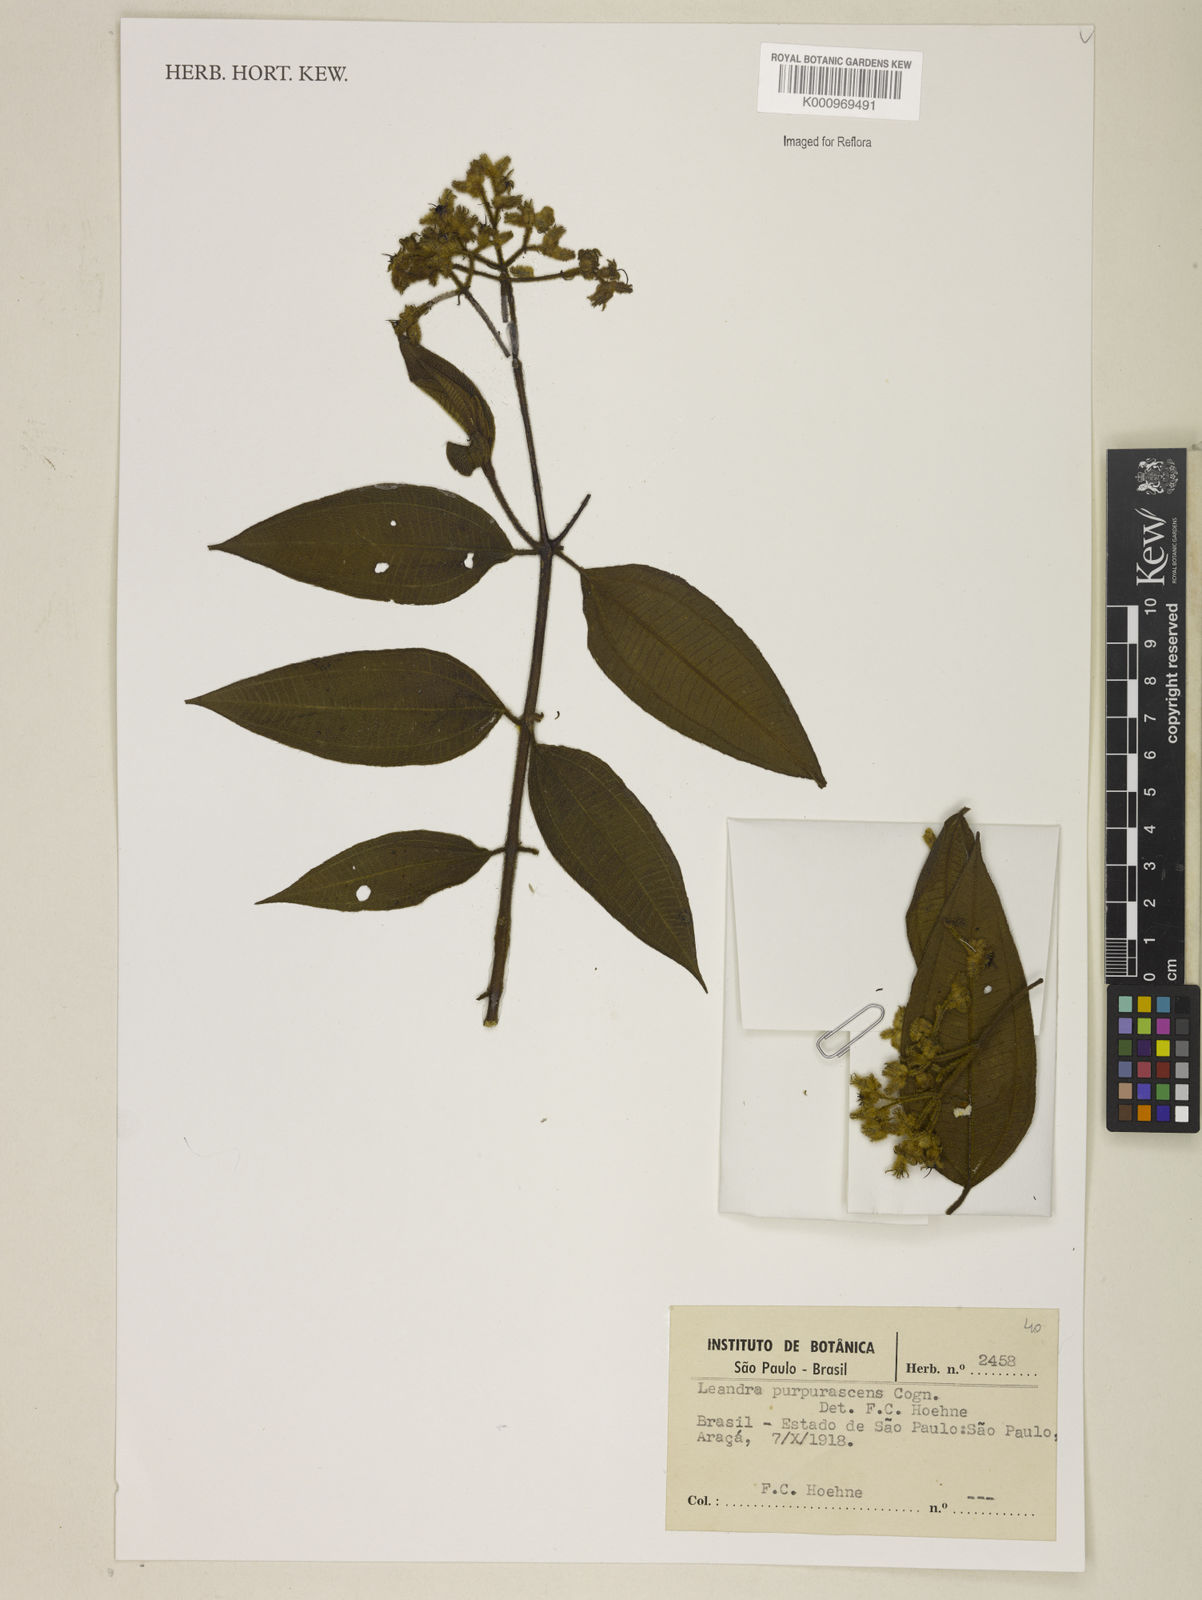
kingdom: Plantae
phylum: Tracheophyta
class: Magnoliopsida
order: Myrtales
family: Melastomataceae
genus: Miconia
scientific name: Miconia microstachya
